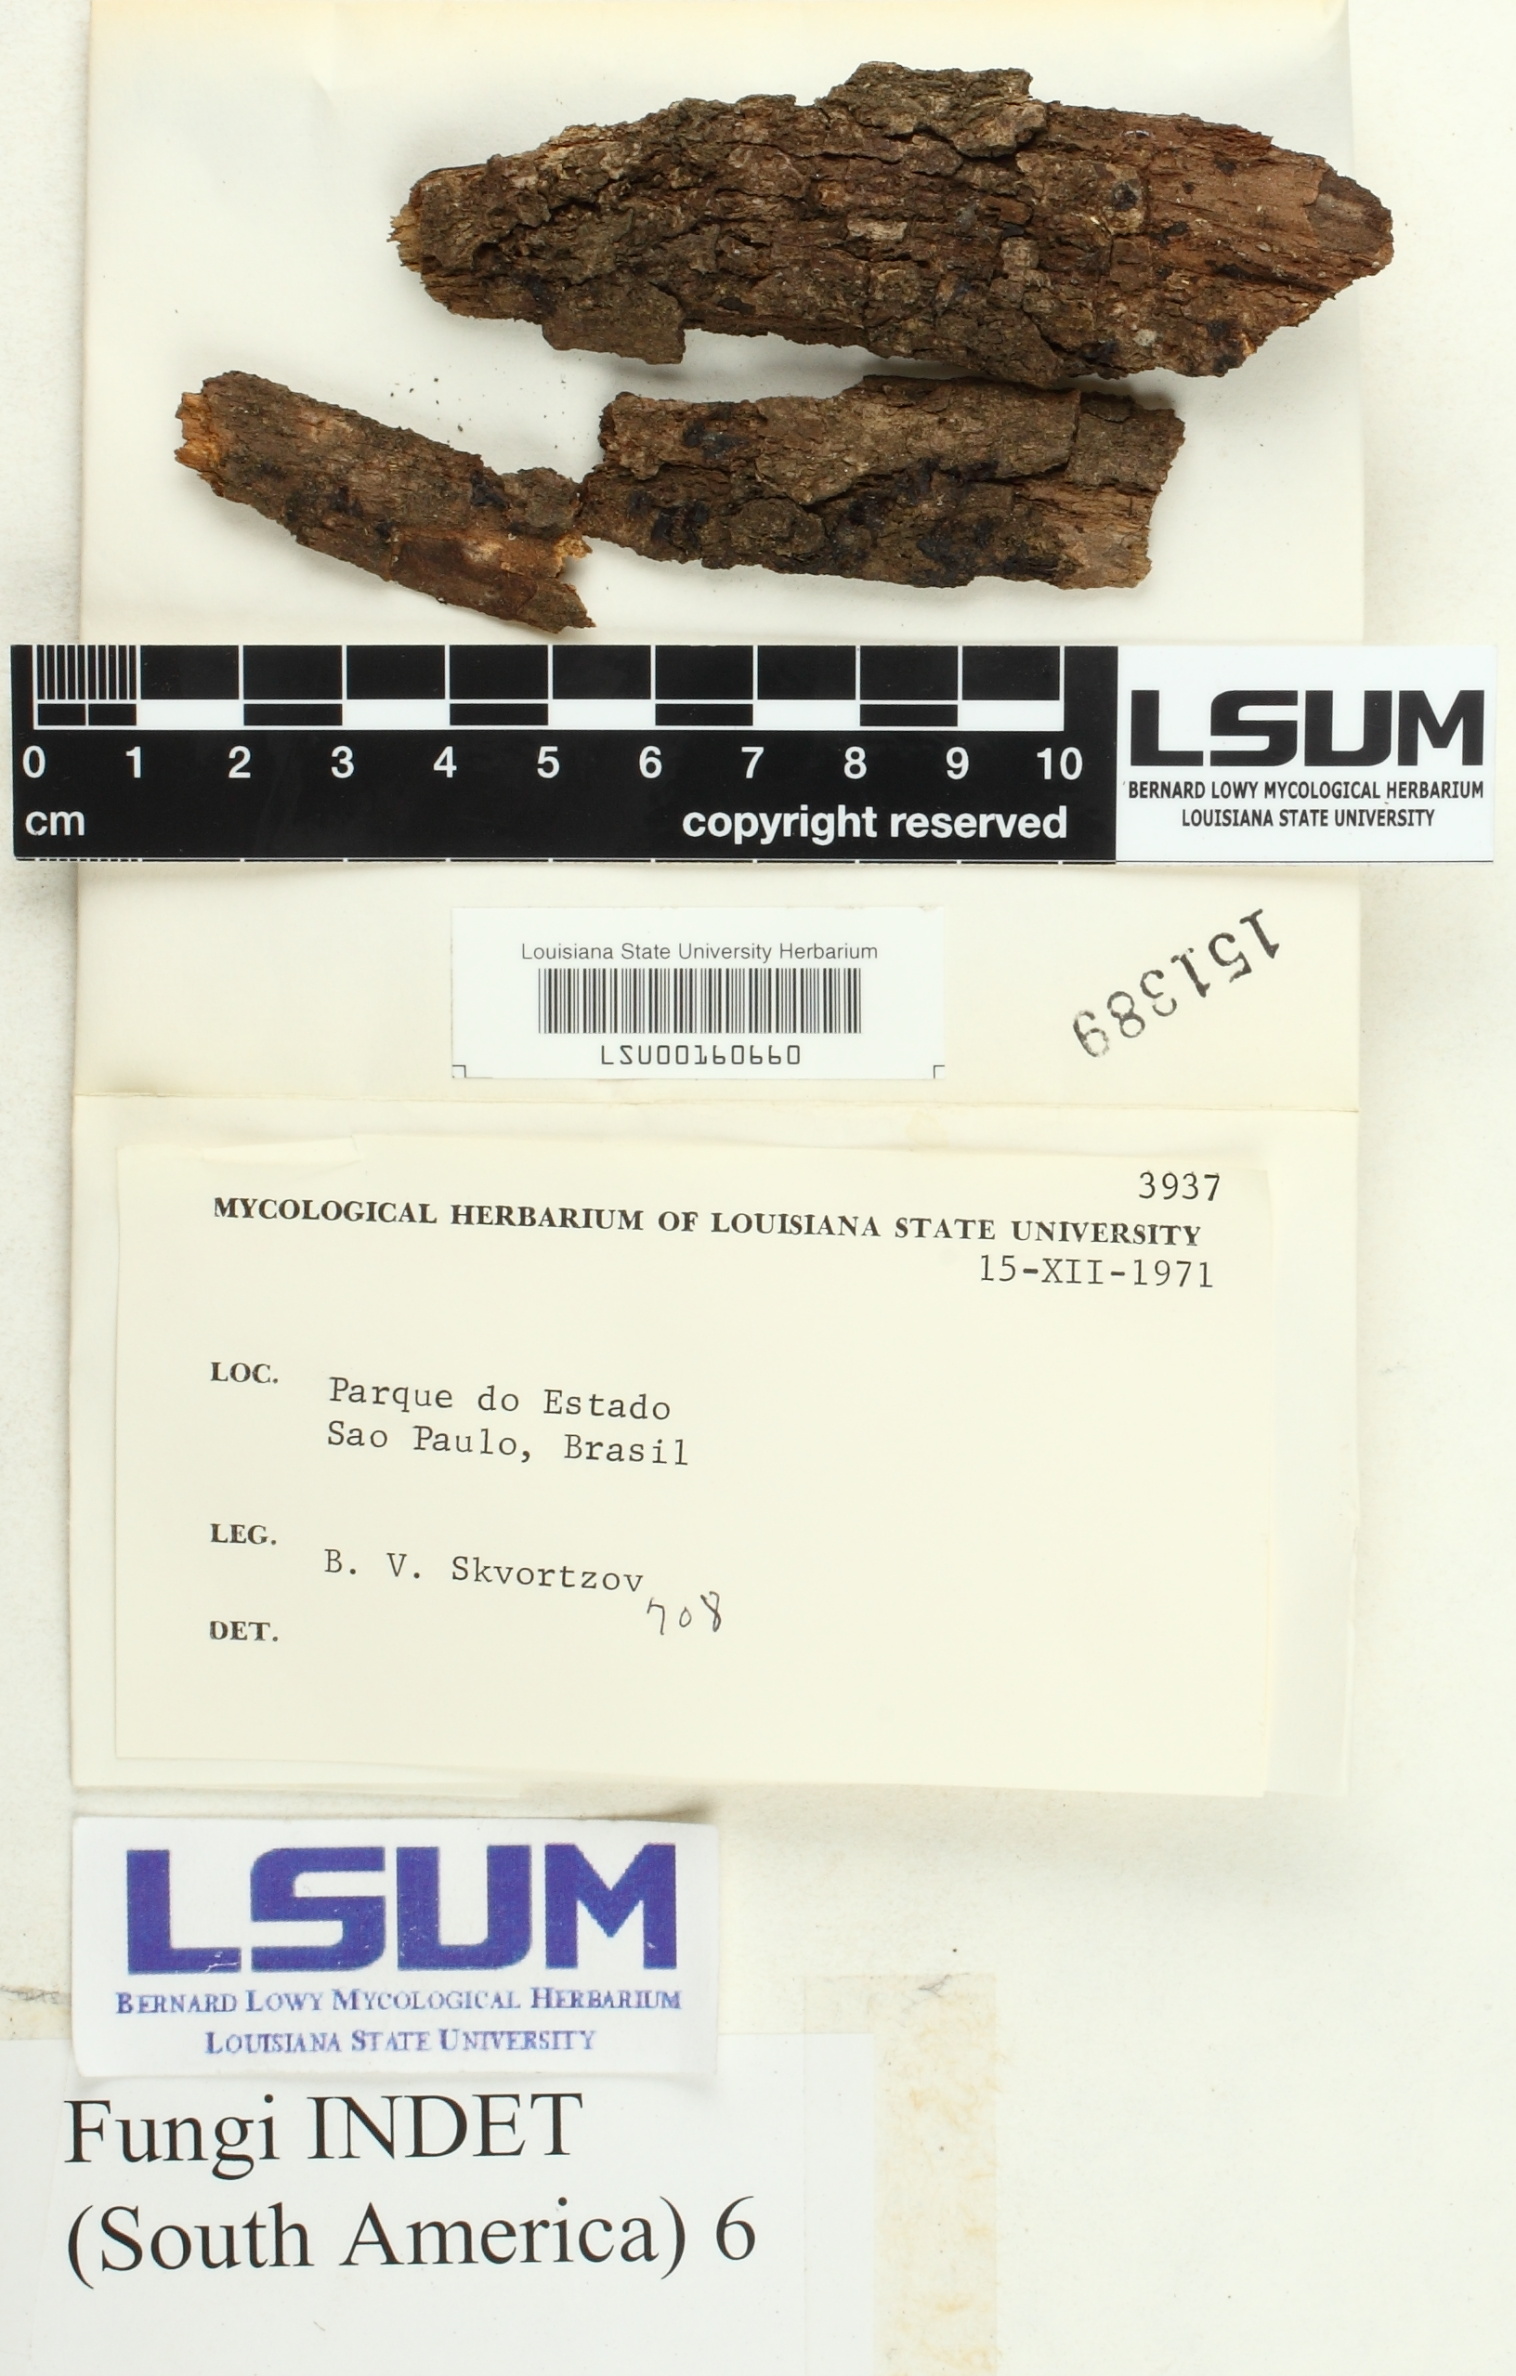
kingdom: Fungi
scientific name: Fungi
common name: Fungi
